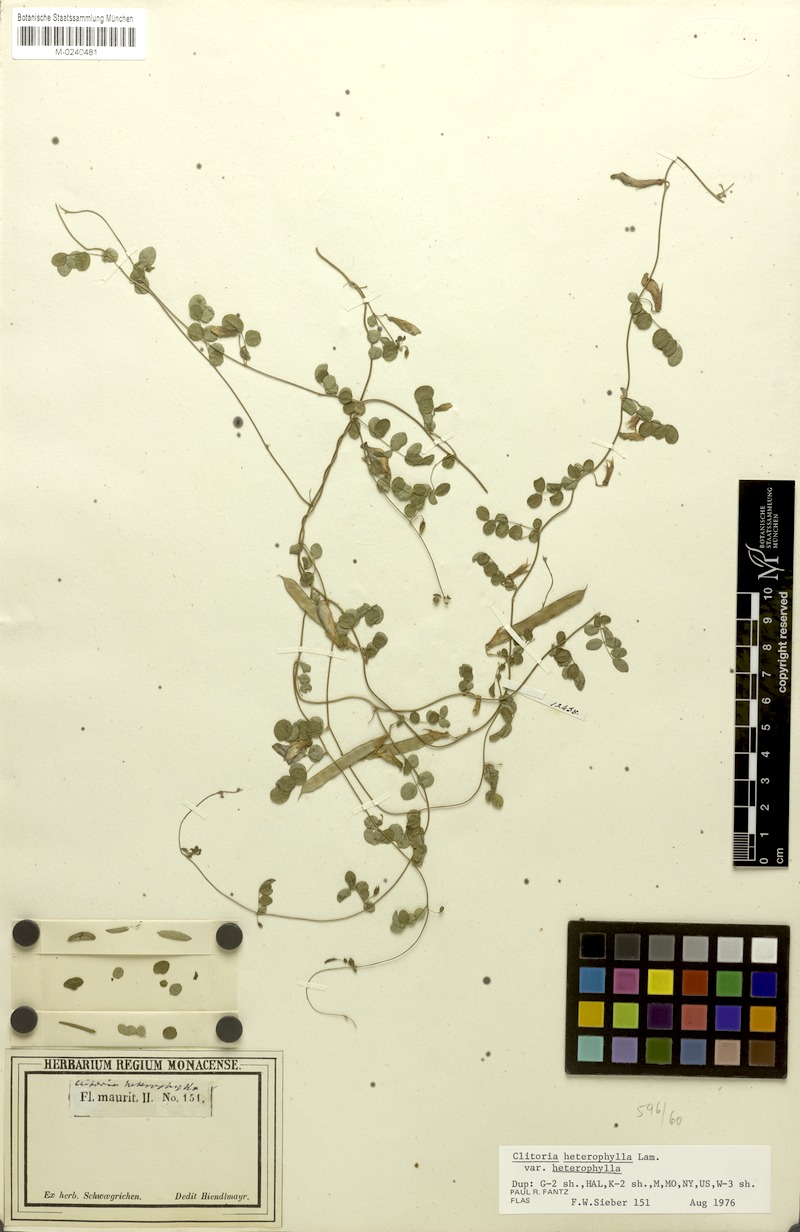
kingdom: Plantae
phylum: Tracheophyta
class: Magnoliopsida
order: Fabales
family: Fabaceae
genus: Clitoria
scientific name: Clitoria heterophylla
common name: Pigeonwings
